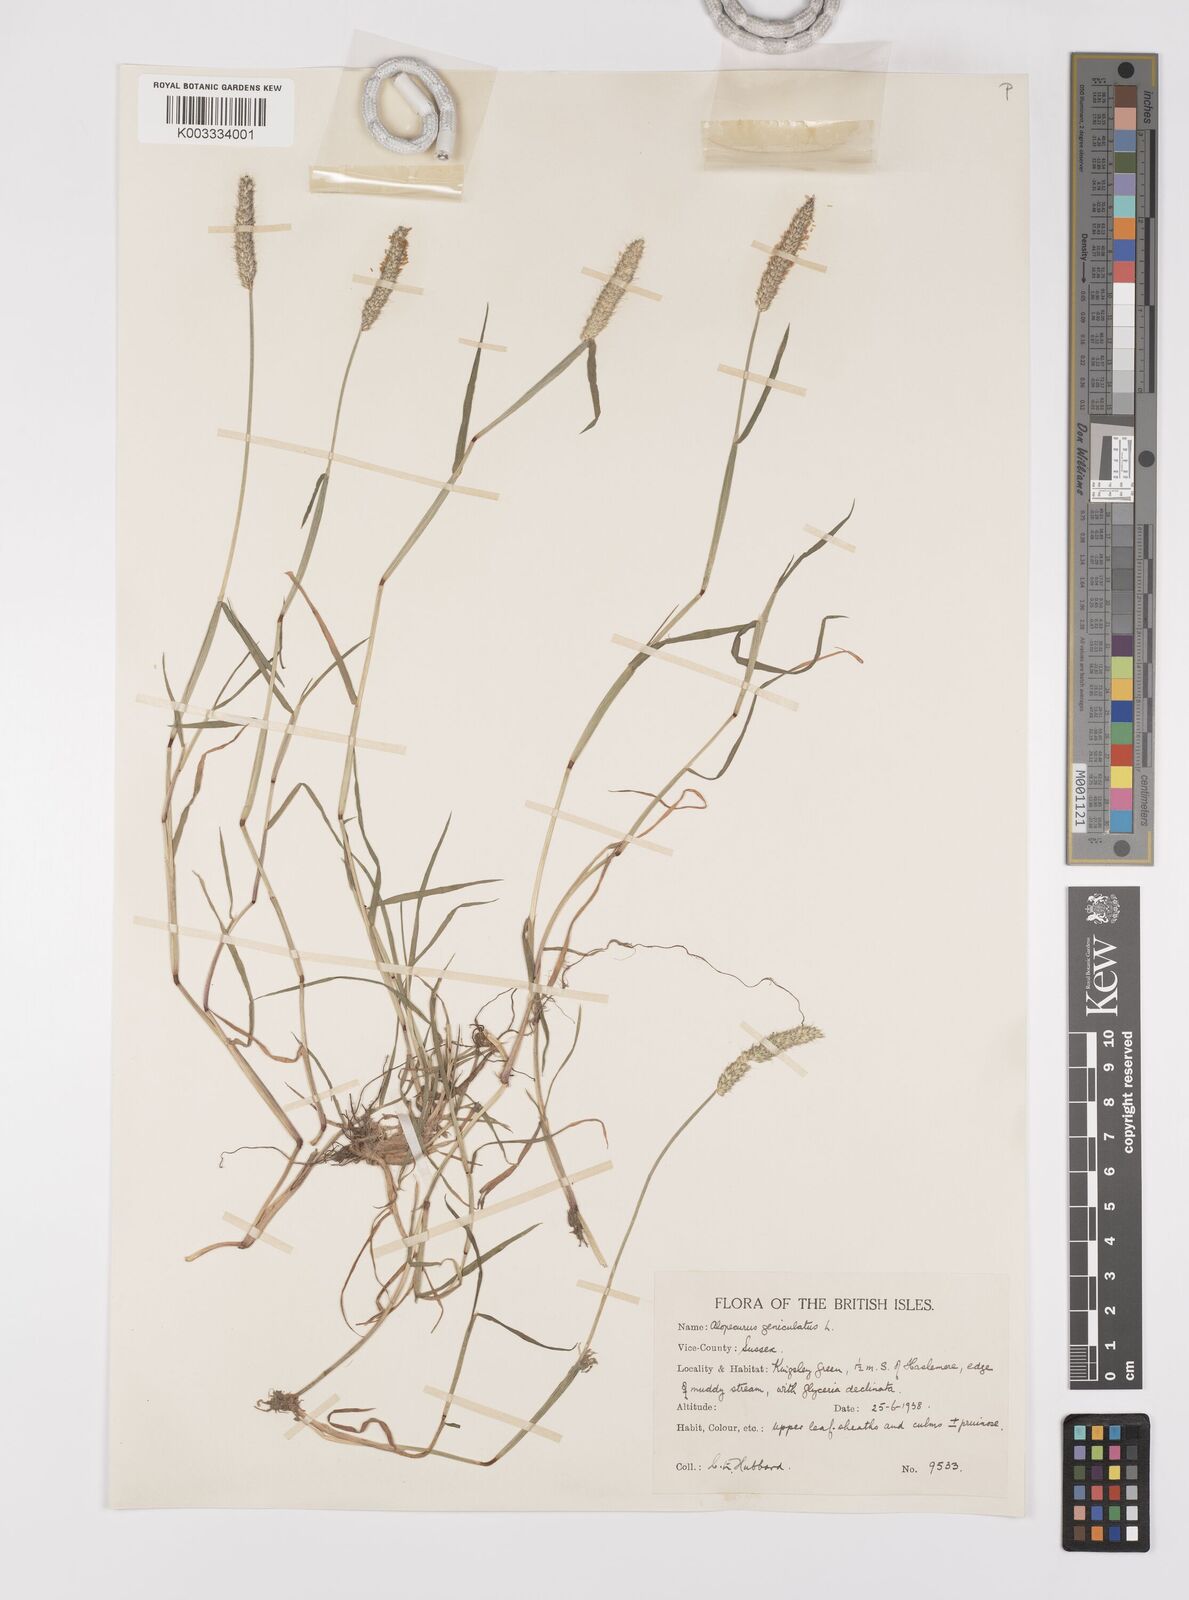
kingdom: Plantae
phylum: Tracheophyta
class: Liliopsida
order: Poales
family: Poaceae
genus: Alopecurus
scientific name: Alopecurus geniculatus
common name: Water foxtail
